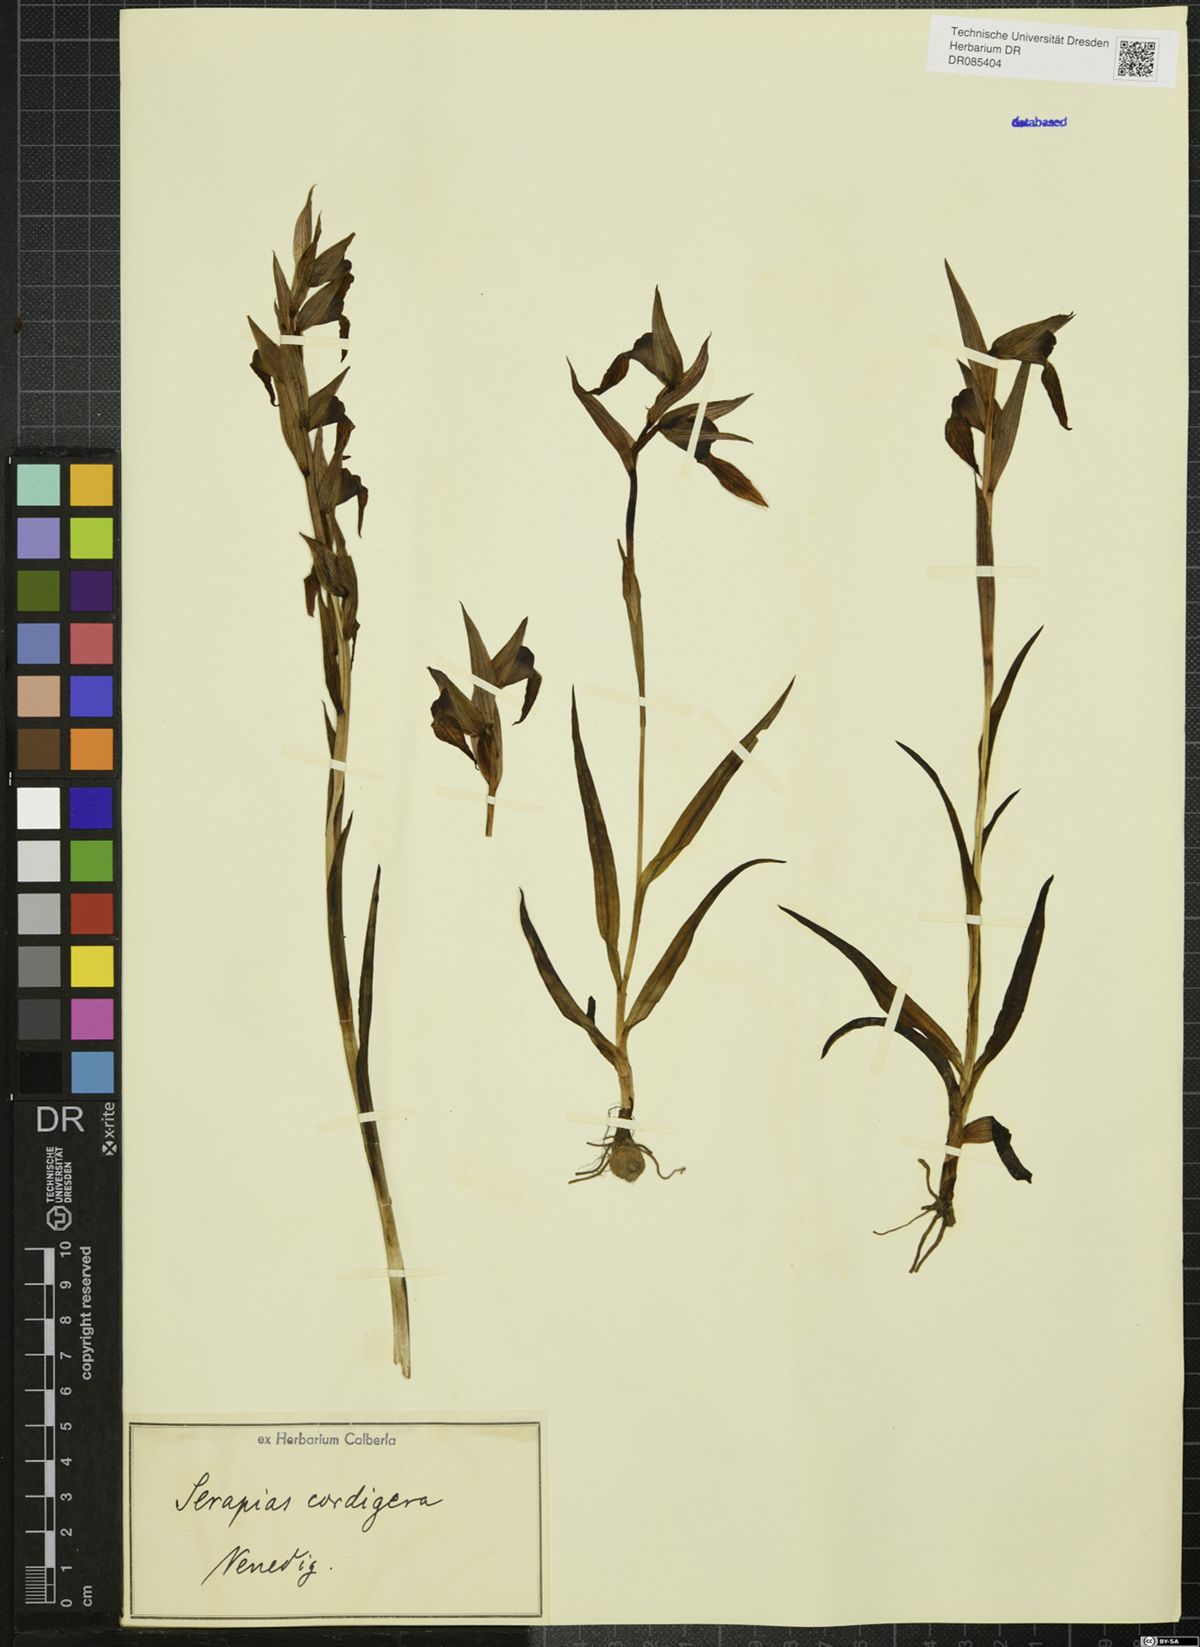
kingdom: Plantae
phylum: Tracheophyta
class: Liliopsida
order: Asparagales
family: Orchidaceae
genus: Serapias
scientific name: Serapias cordigera
